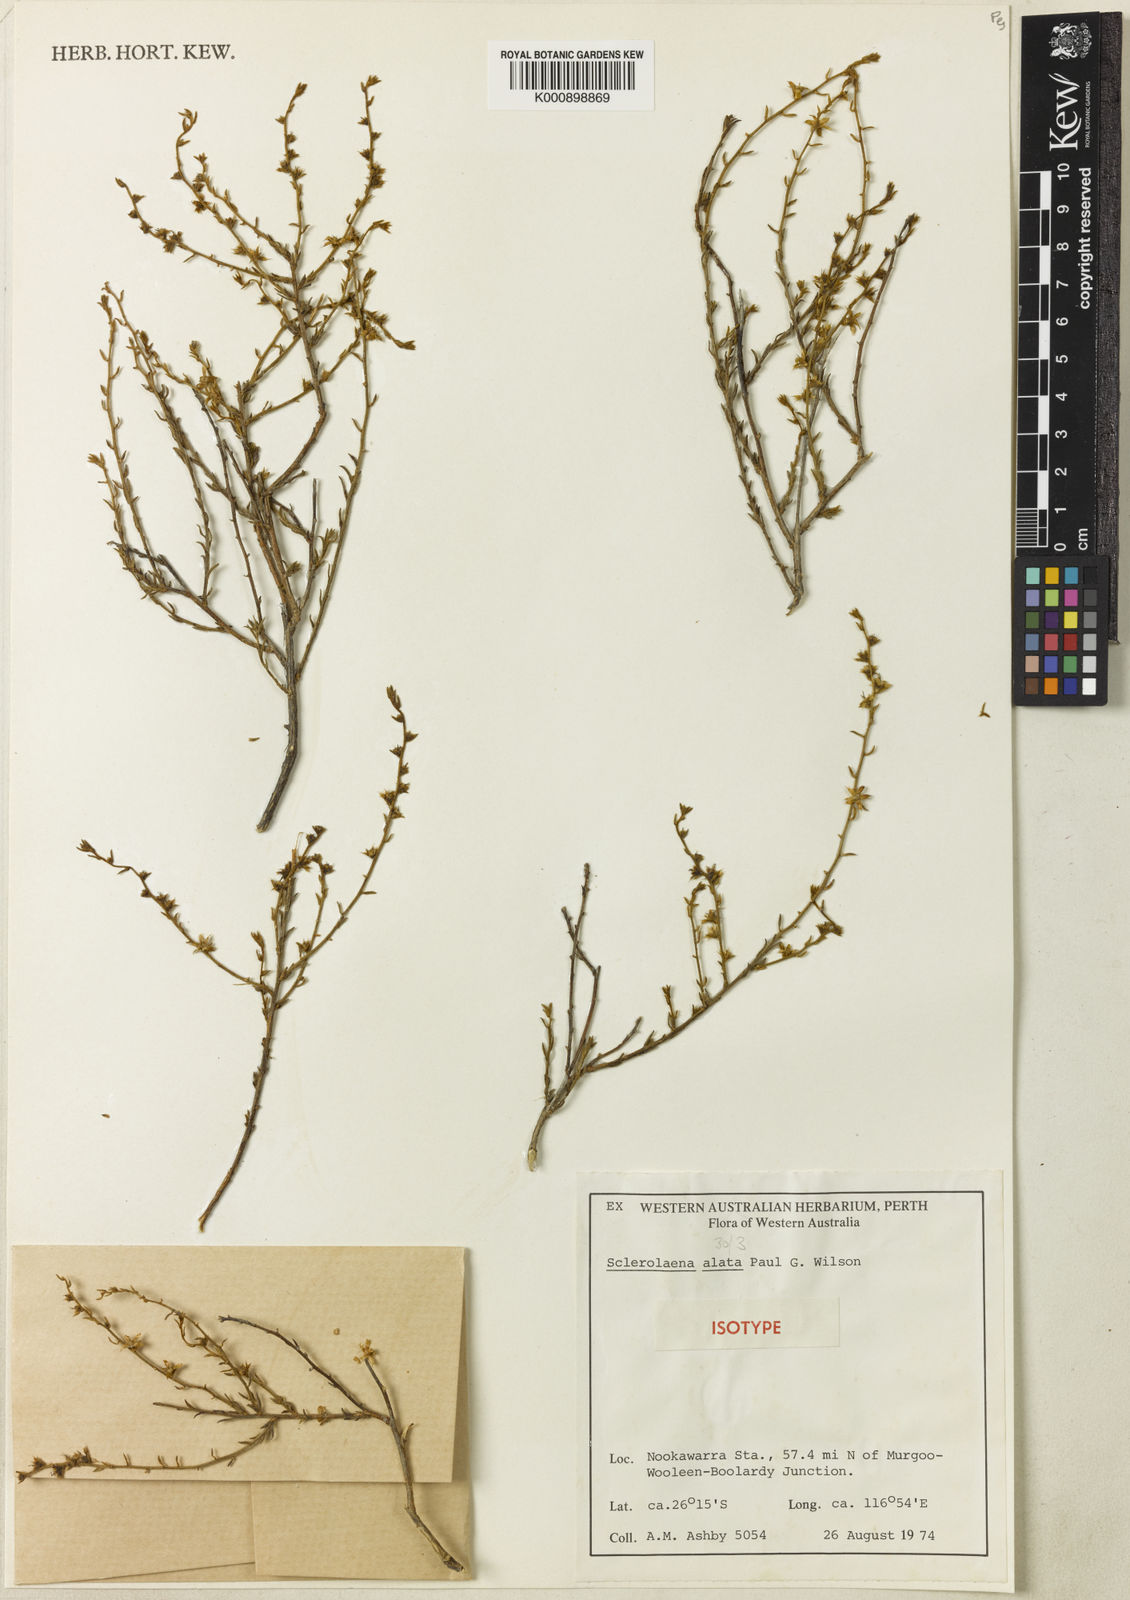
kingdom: Plantae
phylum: Tracheophyta
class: Magnoliopsida
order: Caryophyllales
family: Amaranthaceae
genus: Sclerolaena
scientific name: Sclerolaena alata
